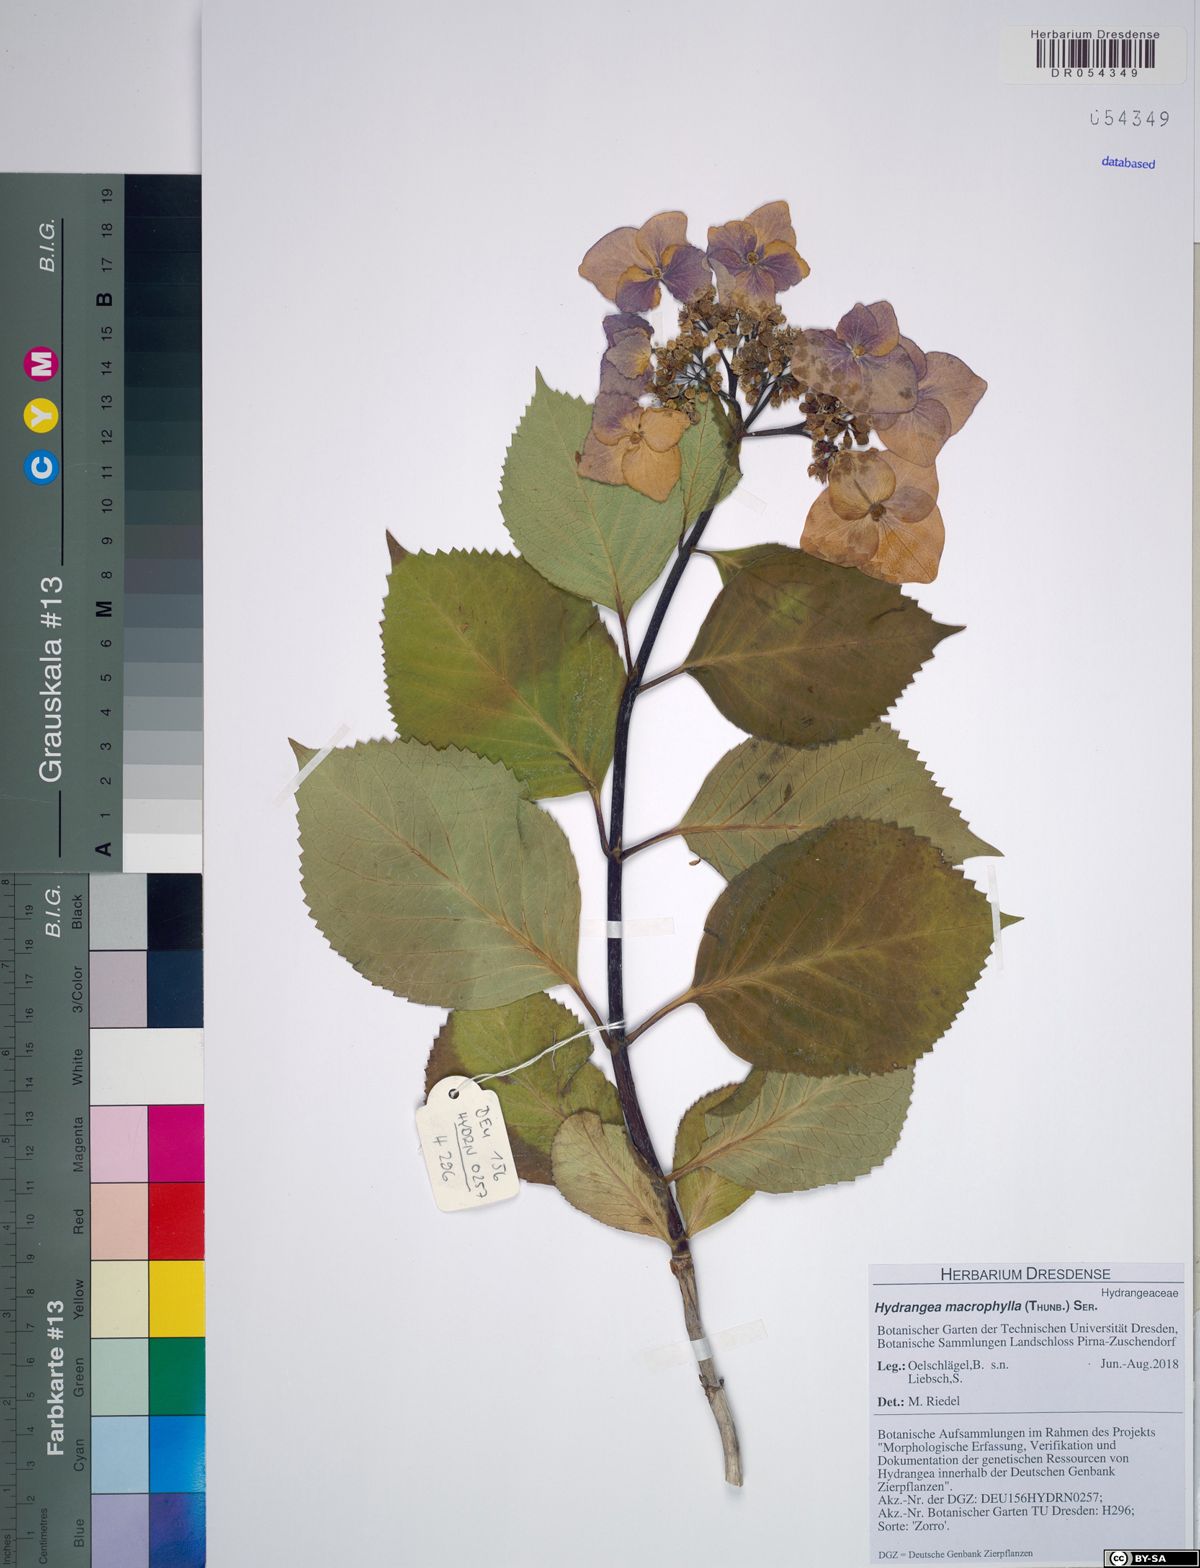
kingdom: Plantae
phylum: Tracheophyta
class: Magnoliopsida
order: Cornales
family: Hydrangeaceae
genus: Hydrangea
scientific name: Hydrangea macrophylla
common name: Hydrangea
